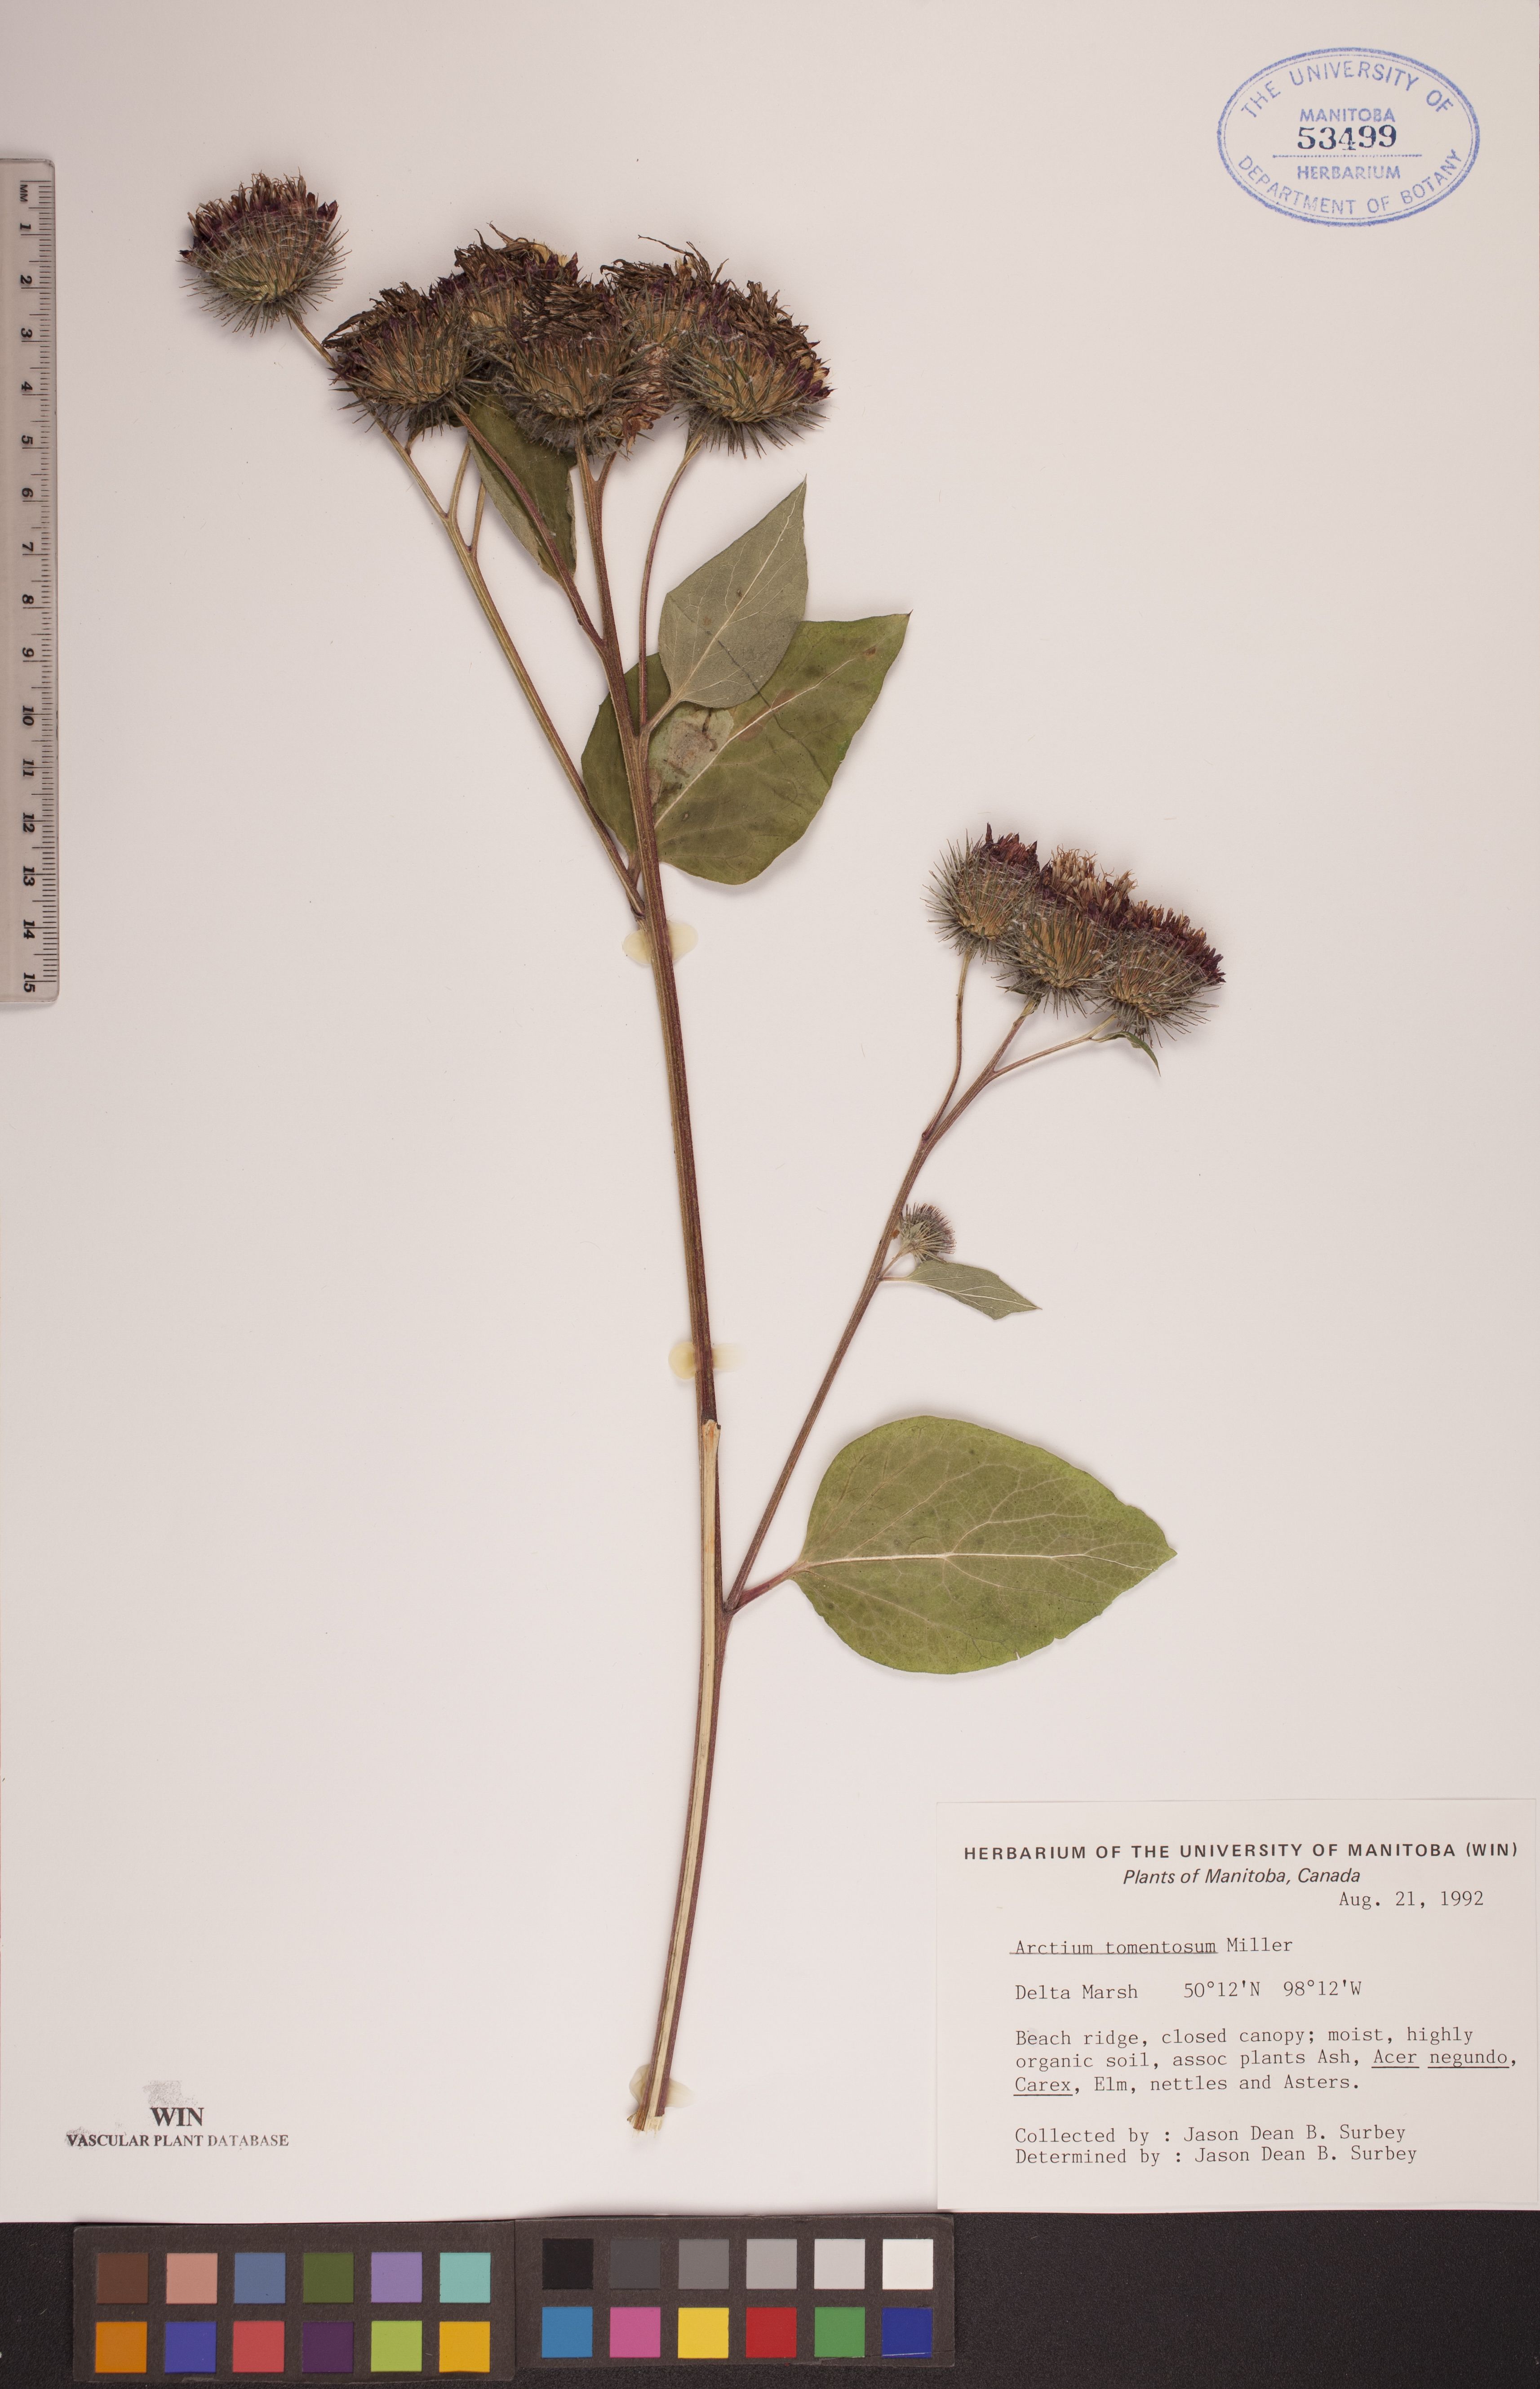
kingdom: Plantae
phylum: Tracheophyta
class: Magnoliopsida
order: Asterales
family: Asteraceae
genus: Arctium
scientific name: Arctium tomentosum
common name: Woolly burdock
